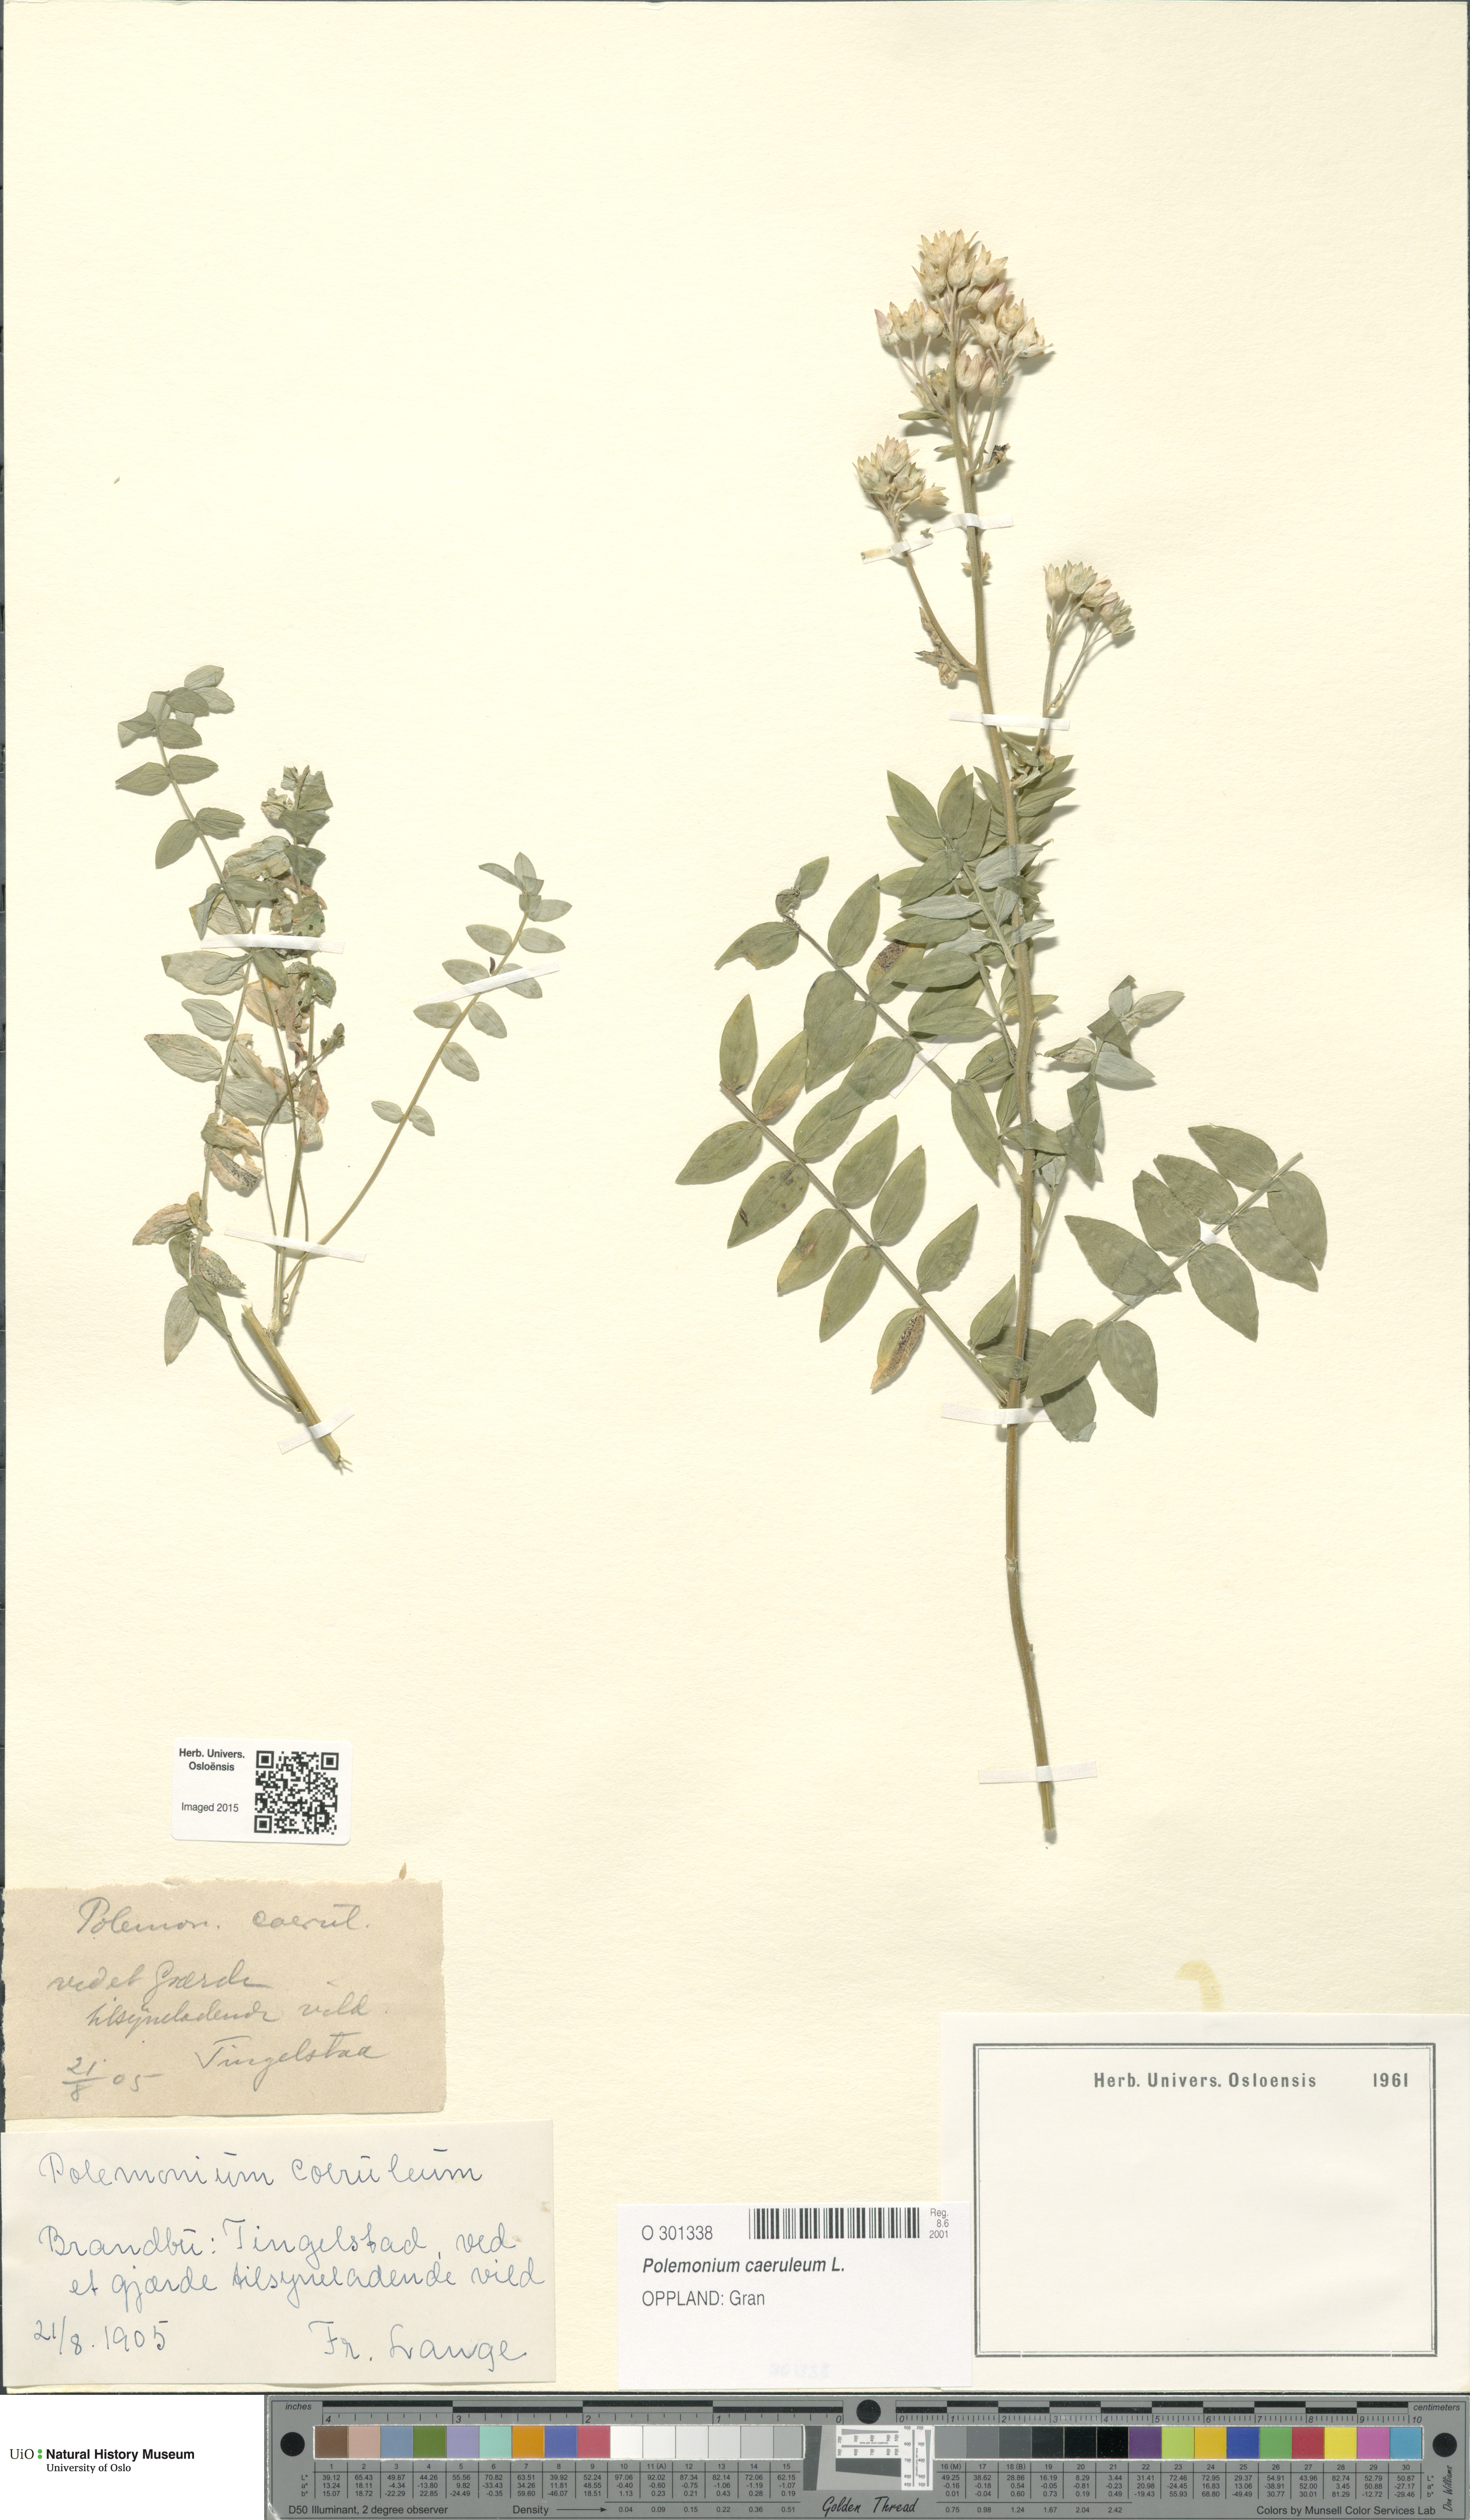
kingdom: Plantae
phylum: Tracheophyta
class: Magnoliopsida
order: Ericales
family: Polemoniaceae
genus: Polemonium
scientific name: Polemonium caeruleum
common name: Jacob's-ladder
